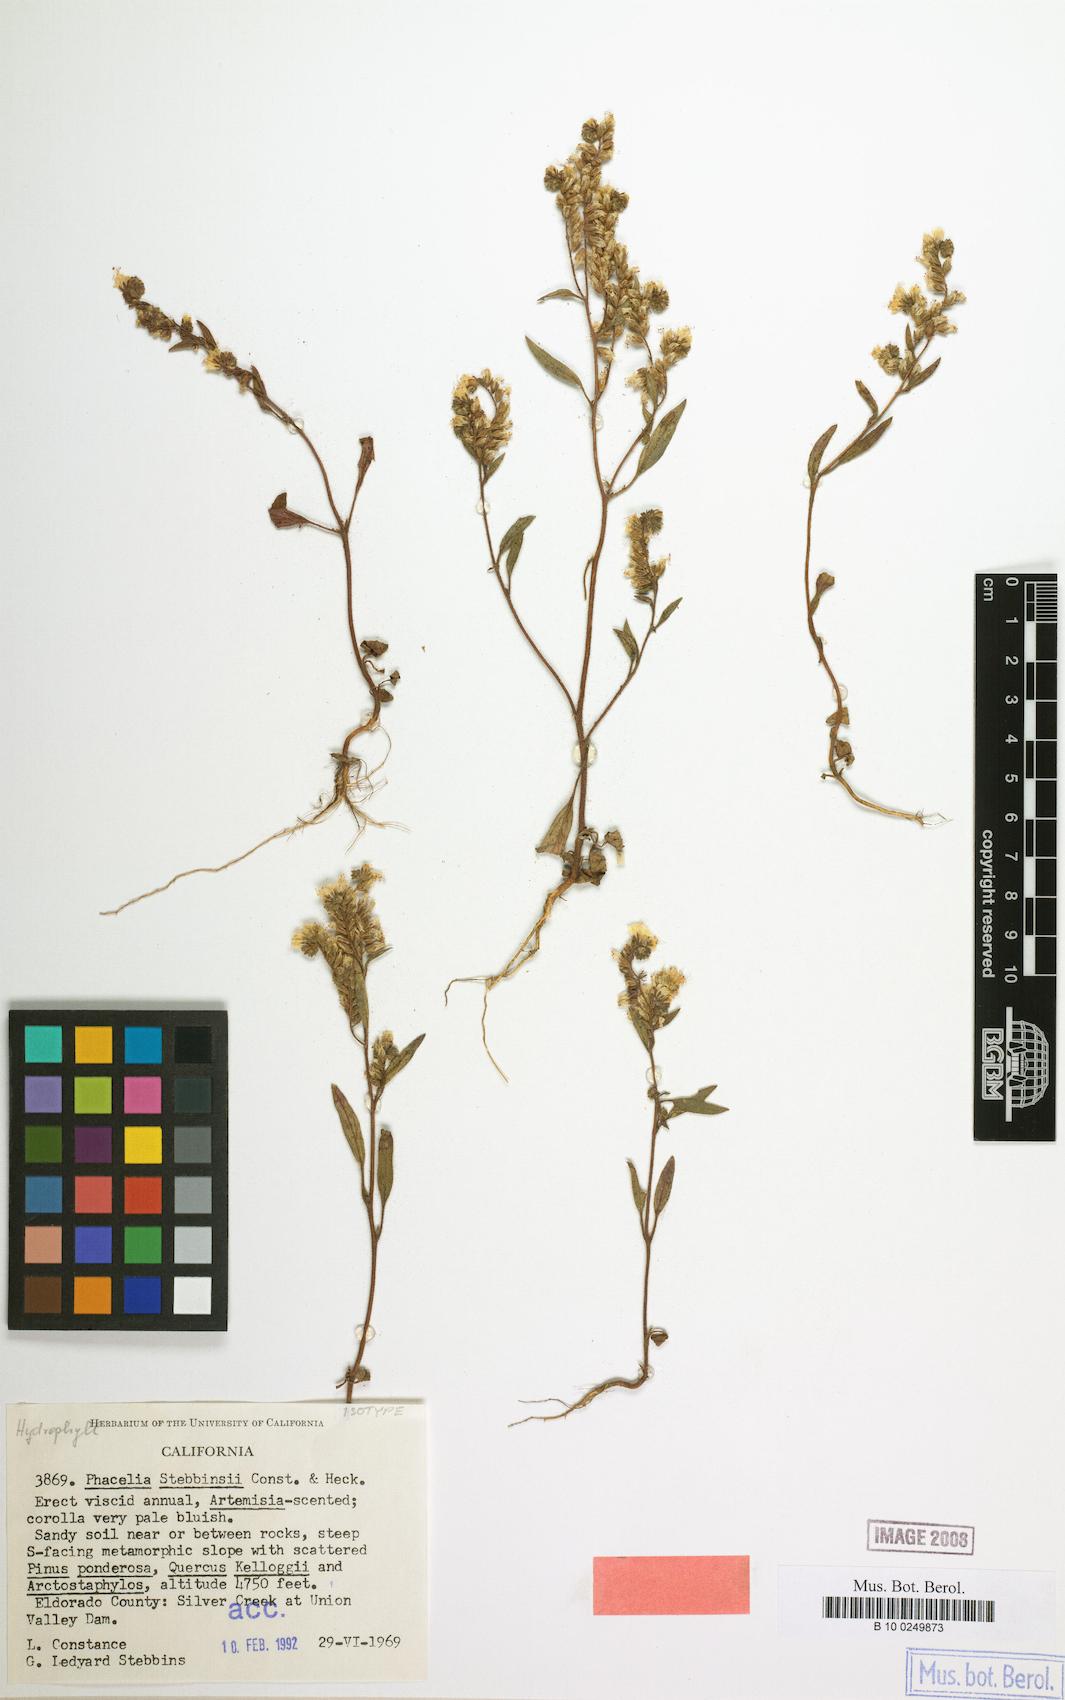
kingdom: Plantae
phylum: Tracheophyta
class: Magnoliopsida
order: Boraginales
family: Hydrophyllaceae
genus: Phacelia
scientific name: Phacelia stebbinsii
